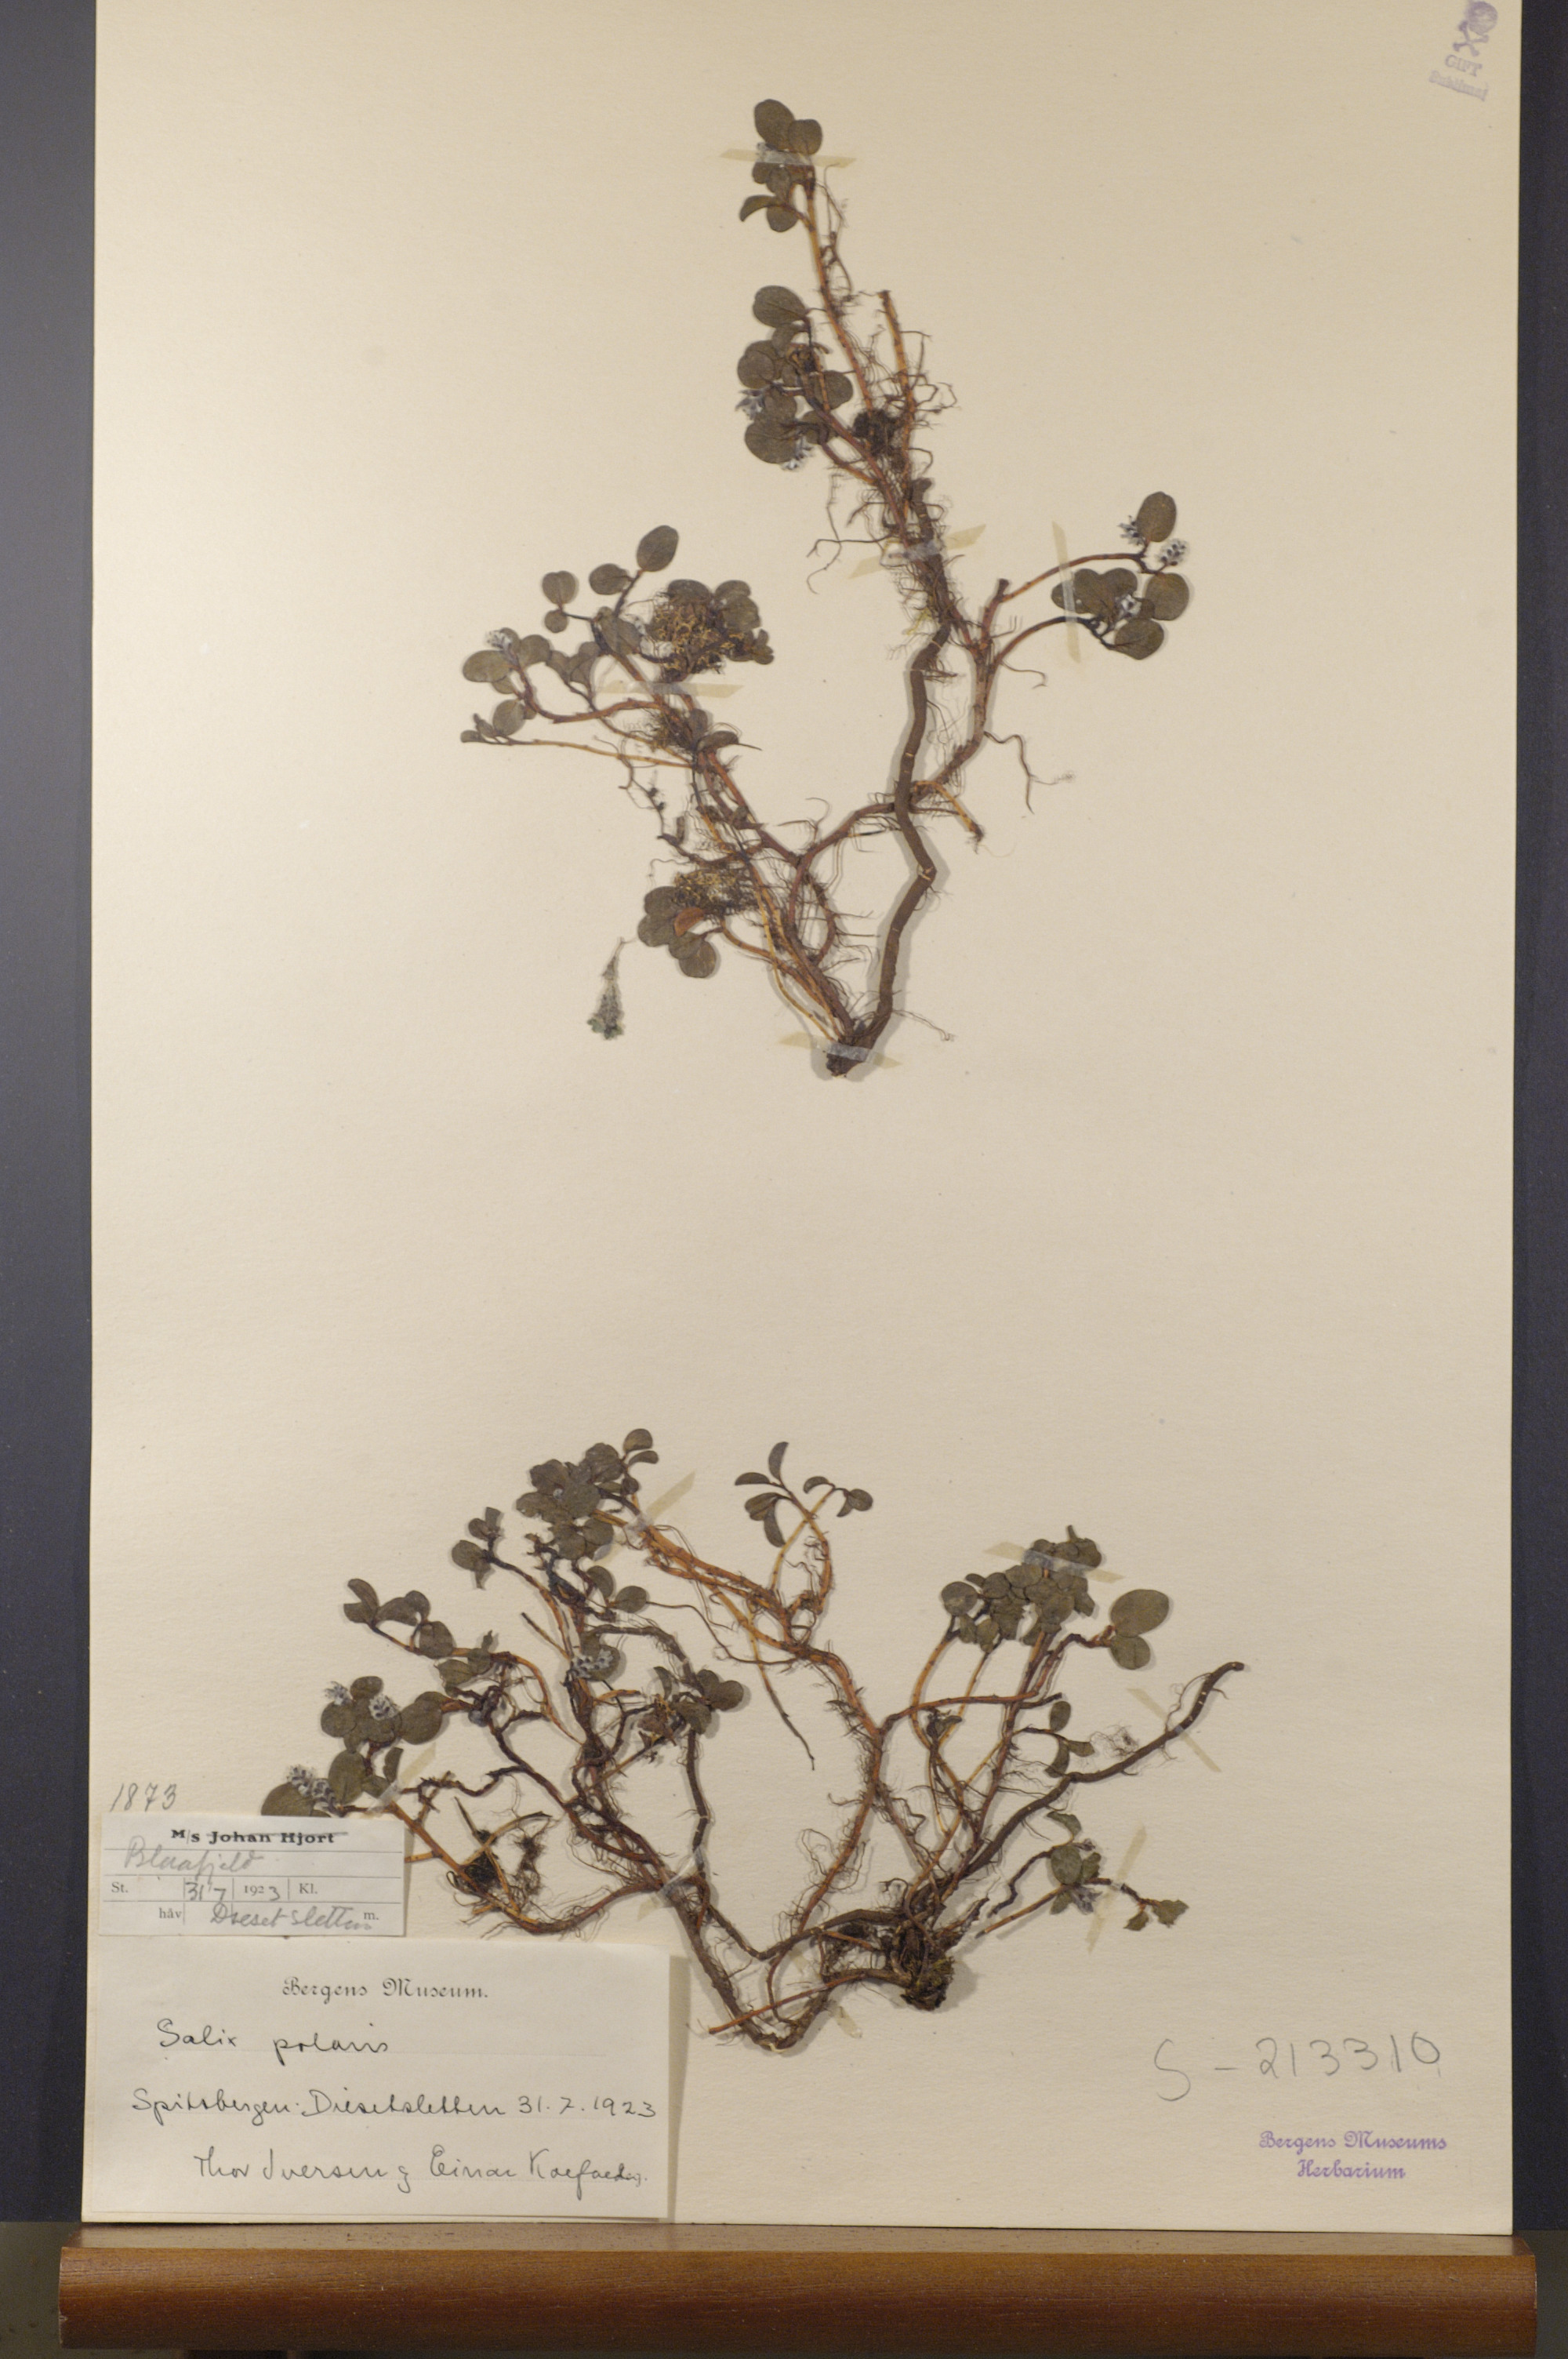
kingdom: Plantae
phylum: Tracheophyta
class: Magnoliopsida
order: Malpighiales
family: Salicaceae
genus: Salix
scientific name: Salix polaris
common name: Polar willow
